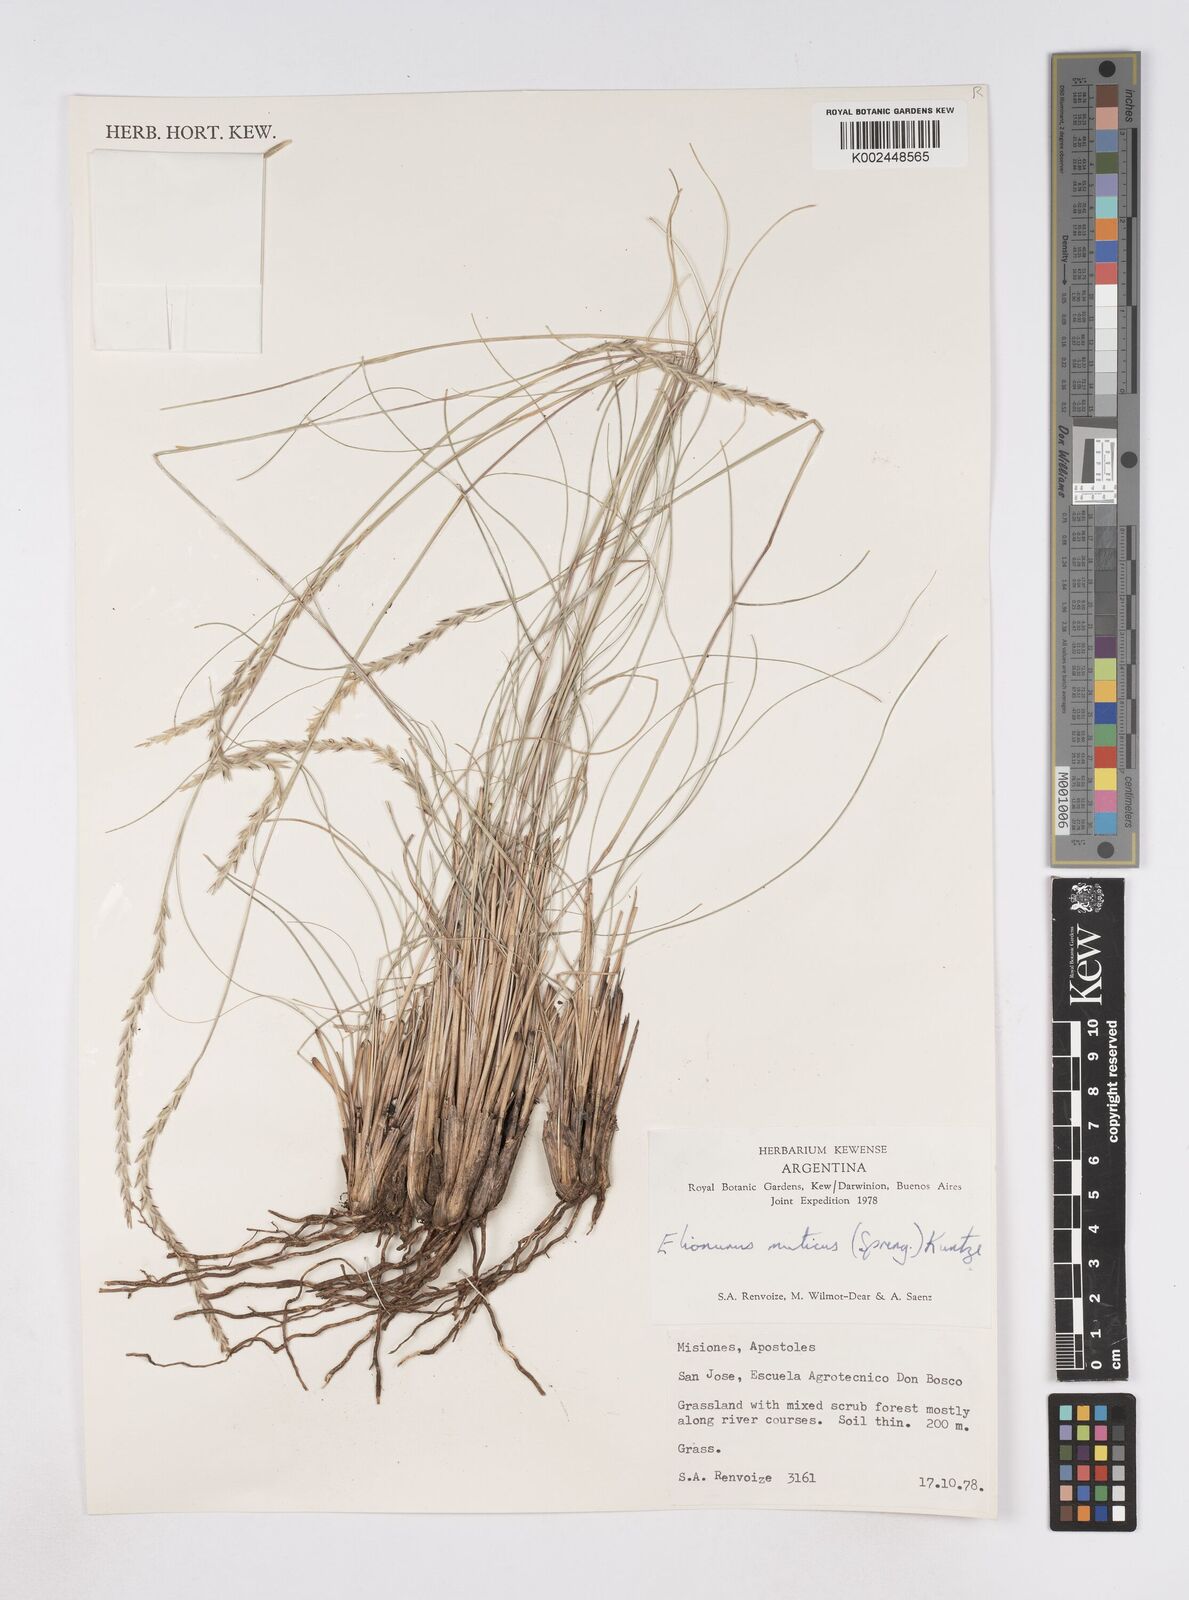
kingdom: Plantae
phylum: Tracheophyta
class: Liliopsida
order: Poales
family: Poaceae
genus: Elionurus
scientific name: Elionurus muticus
